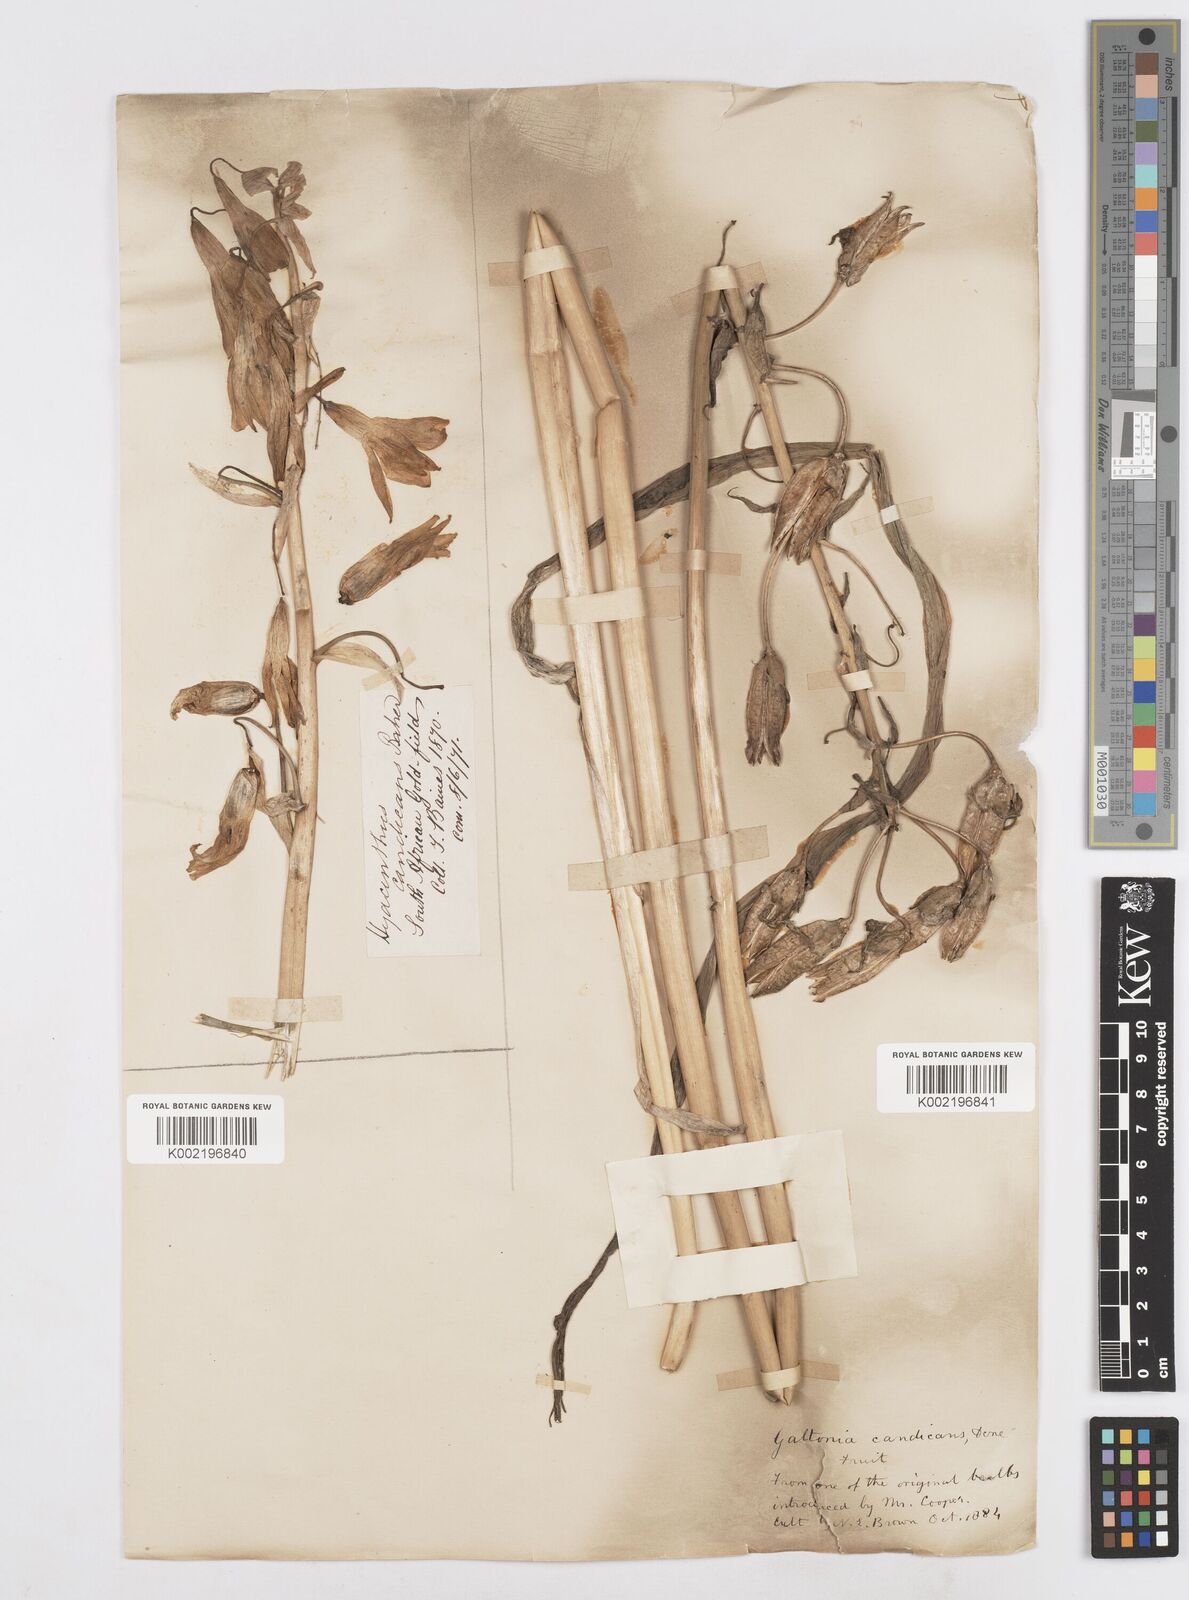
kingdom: Plantae
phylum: Tracheophyta
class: Liliopsida
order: Asparagales
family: Asparagaceae
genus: Ornithogalum
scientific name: Ornithogalum candicans
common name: Summer-hyacinth
